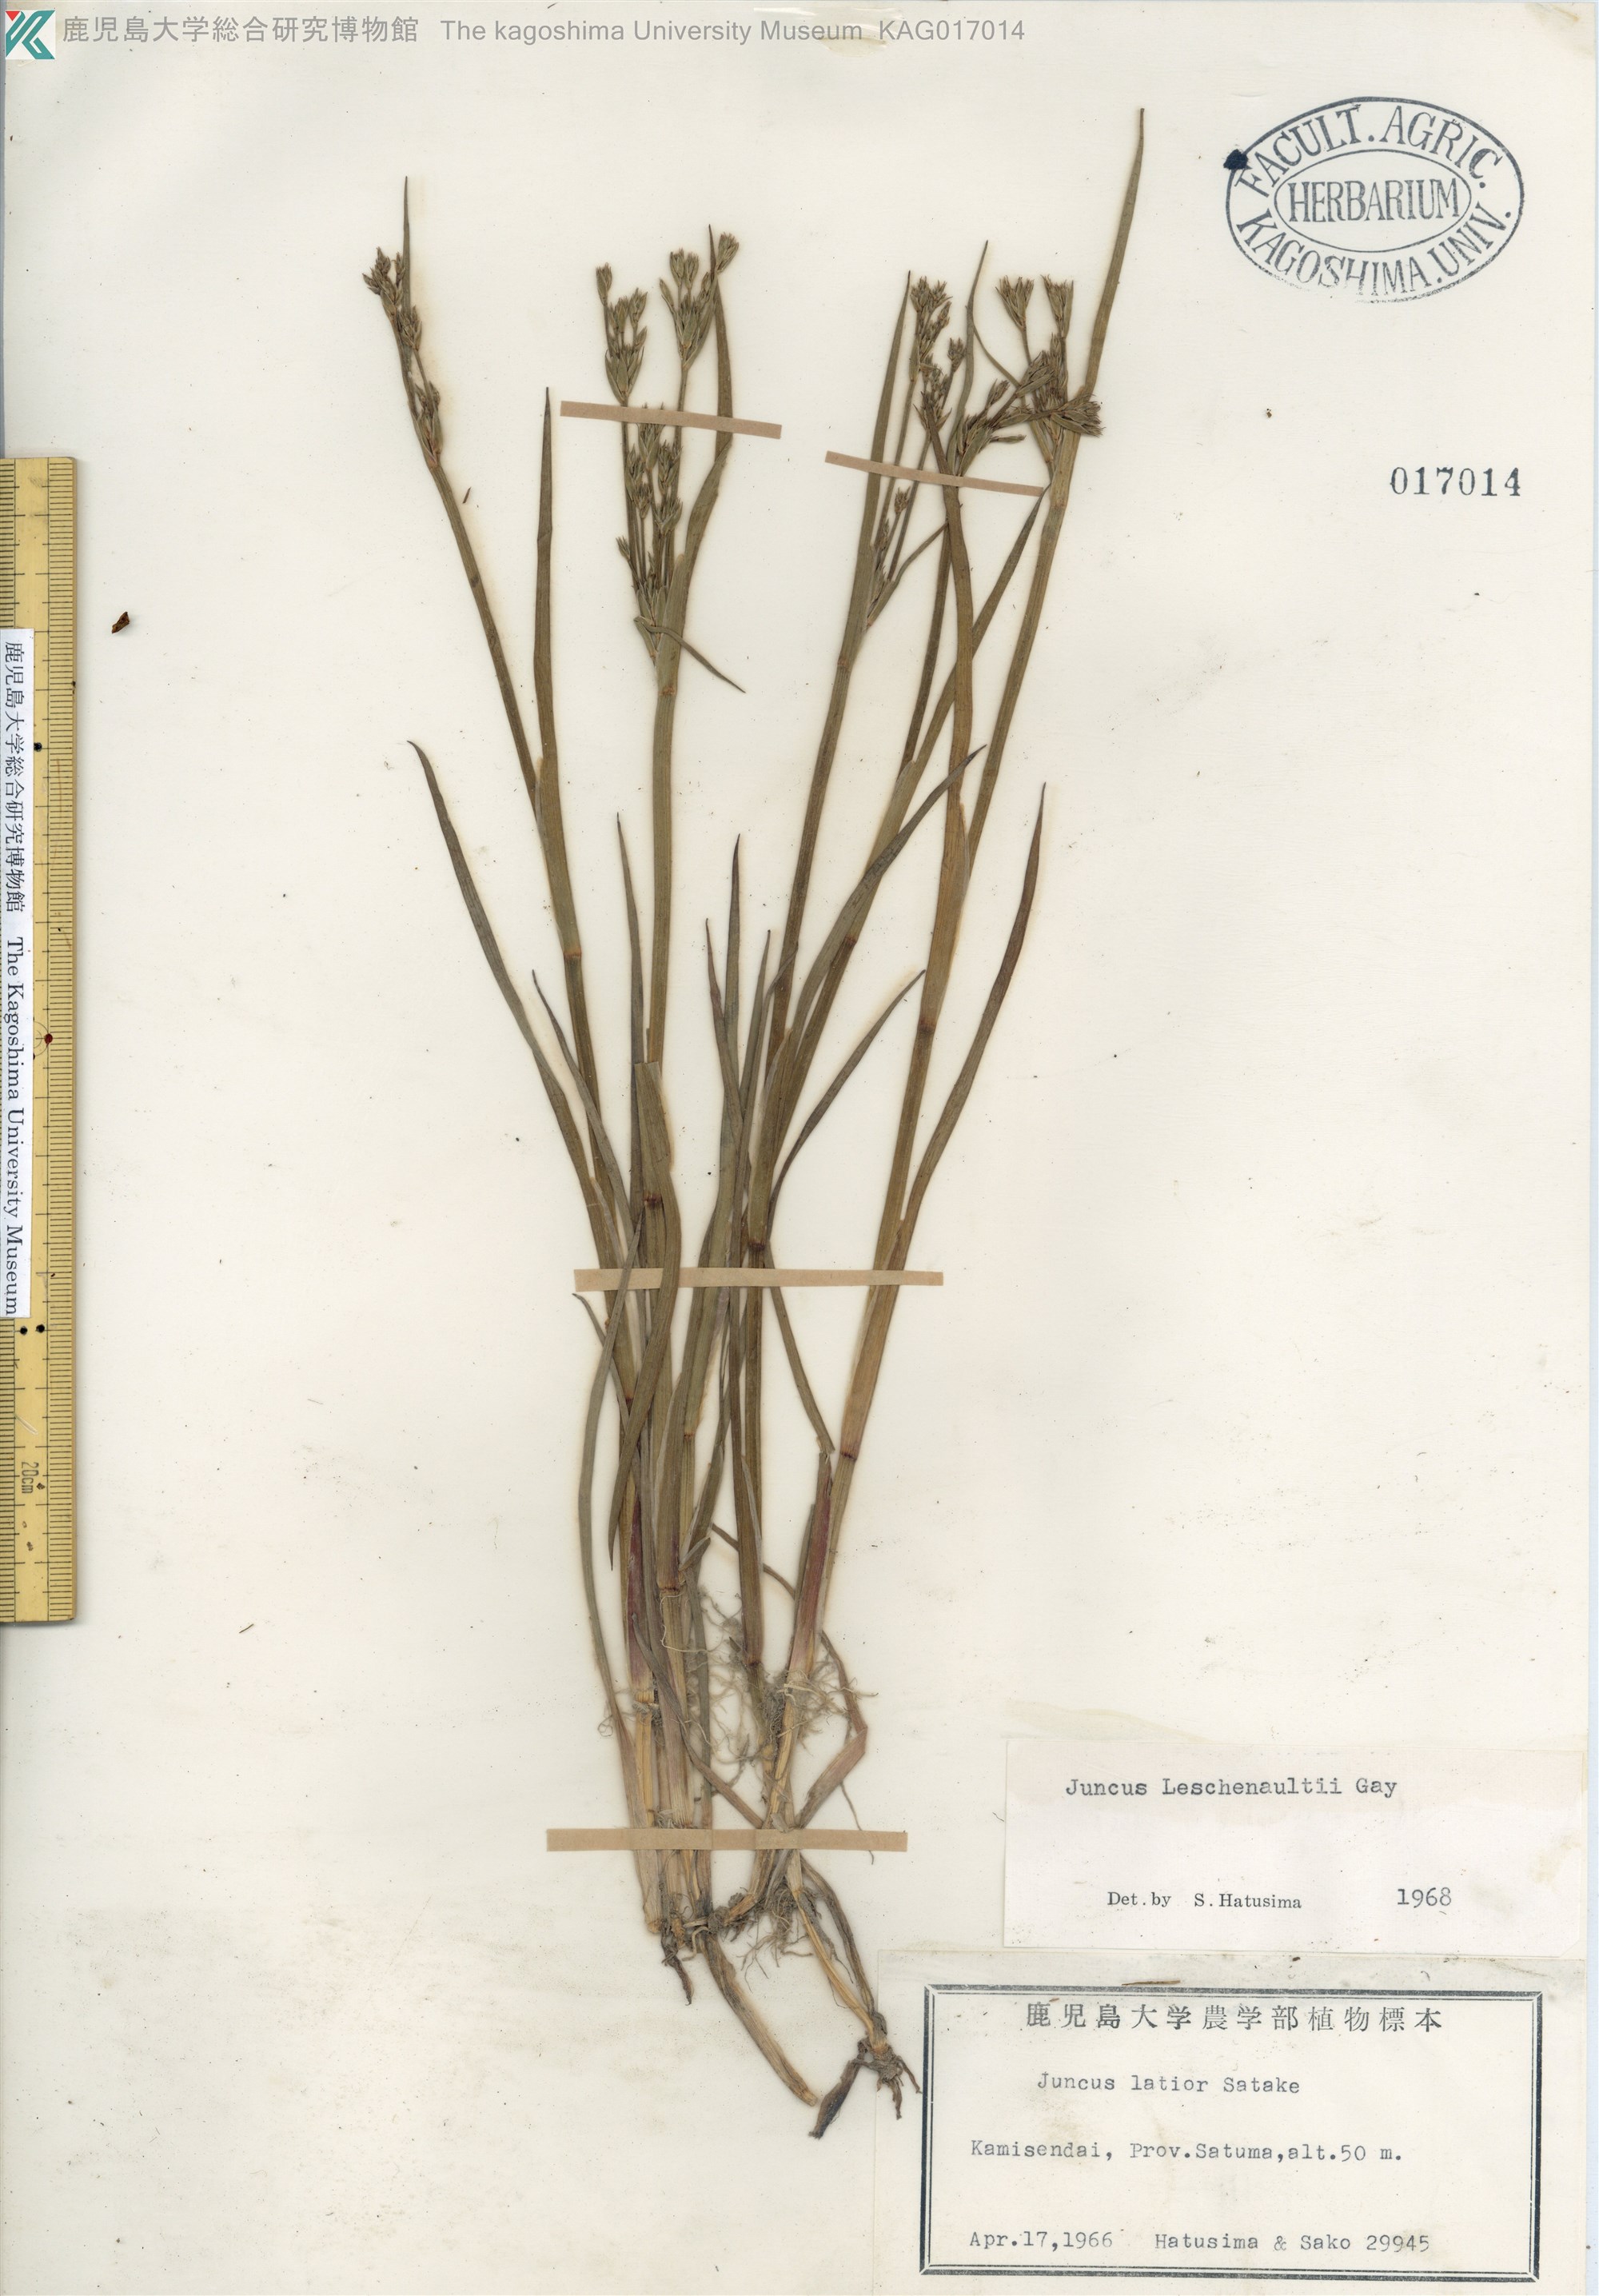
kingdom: Plantae
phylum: Tracheophyta
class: Liliopsida
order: Poales
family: Juncaceae
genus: Juncus
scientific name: Juncus prismatocarpus
